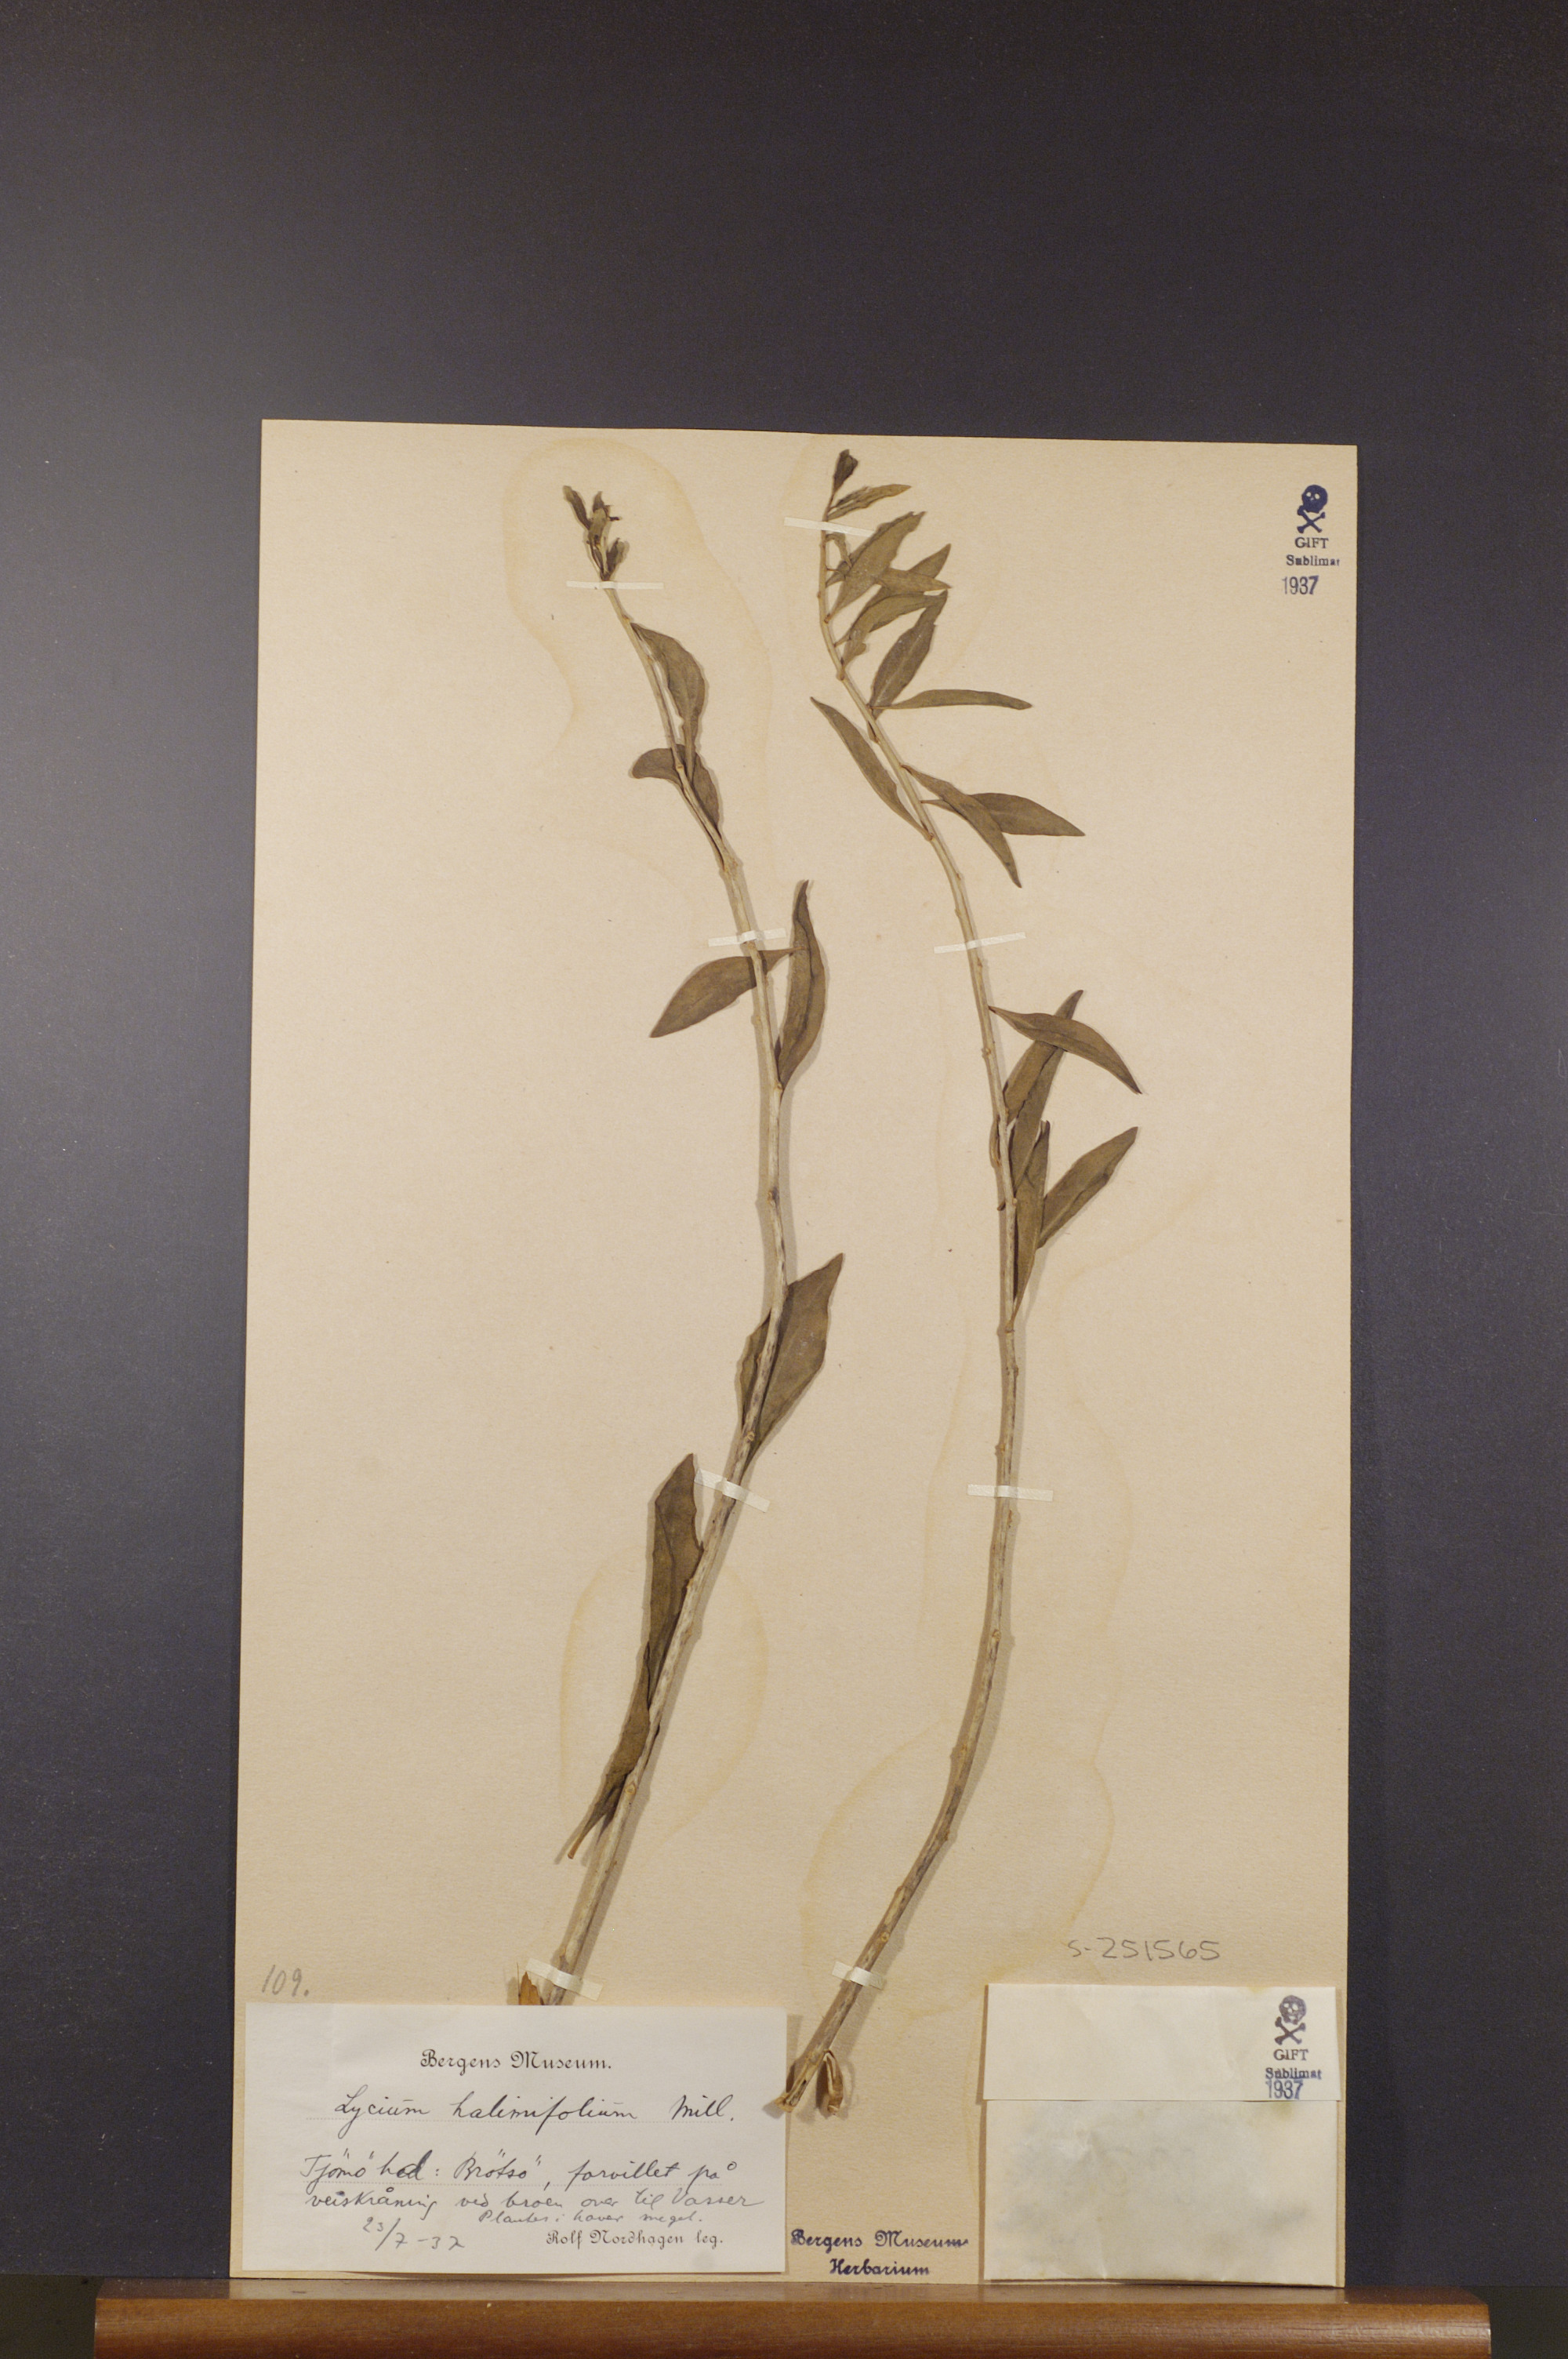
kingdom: Plantae
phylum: Tracheophyta
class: Magnoliopsida
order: Solanales
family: Solanaceae
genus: Lycium
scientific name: Lycium barbarum
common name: Duke of argyll's teaplant
